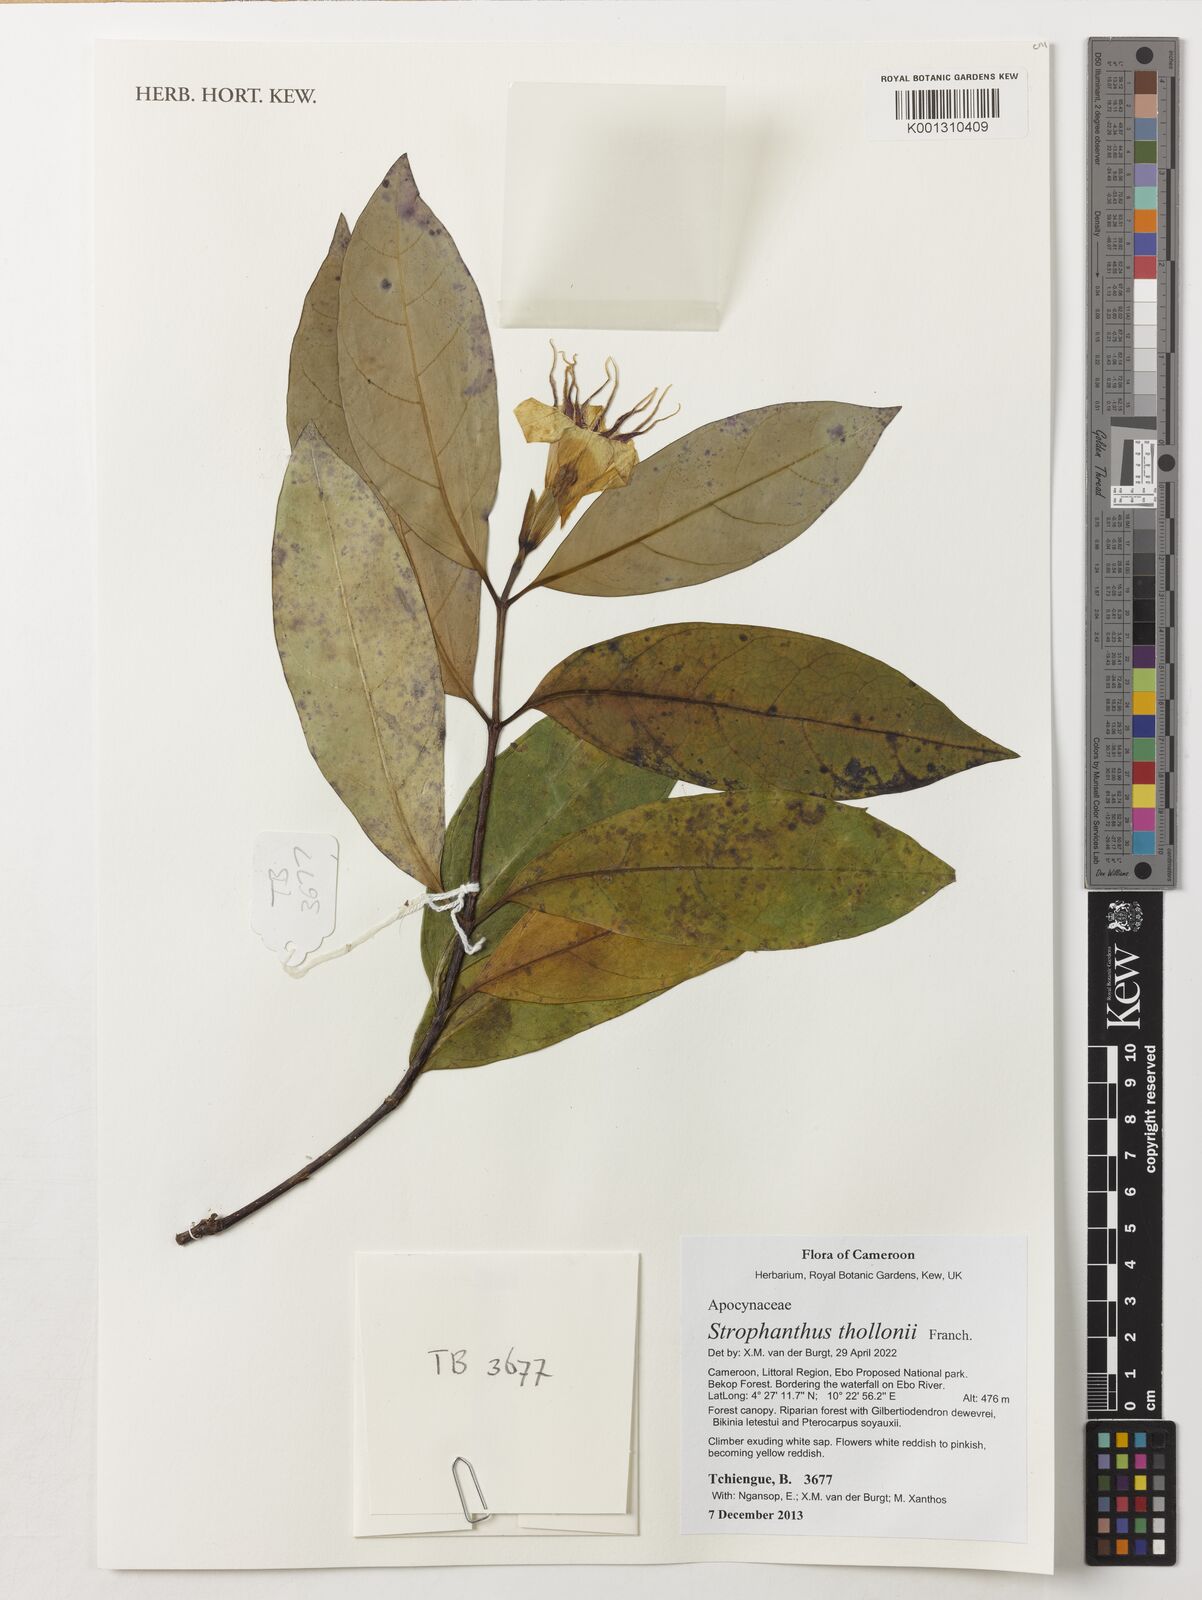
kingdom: Plantae
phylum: Tracheophyta
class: Magnoliopsida
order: Gentianales
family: Apocynaceae
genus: Strophanthus
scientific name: Strophanthus thollonii
